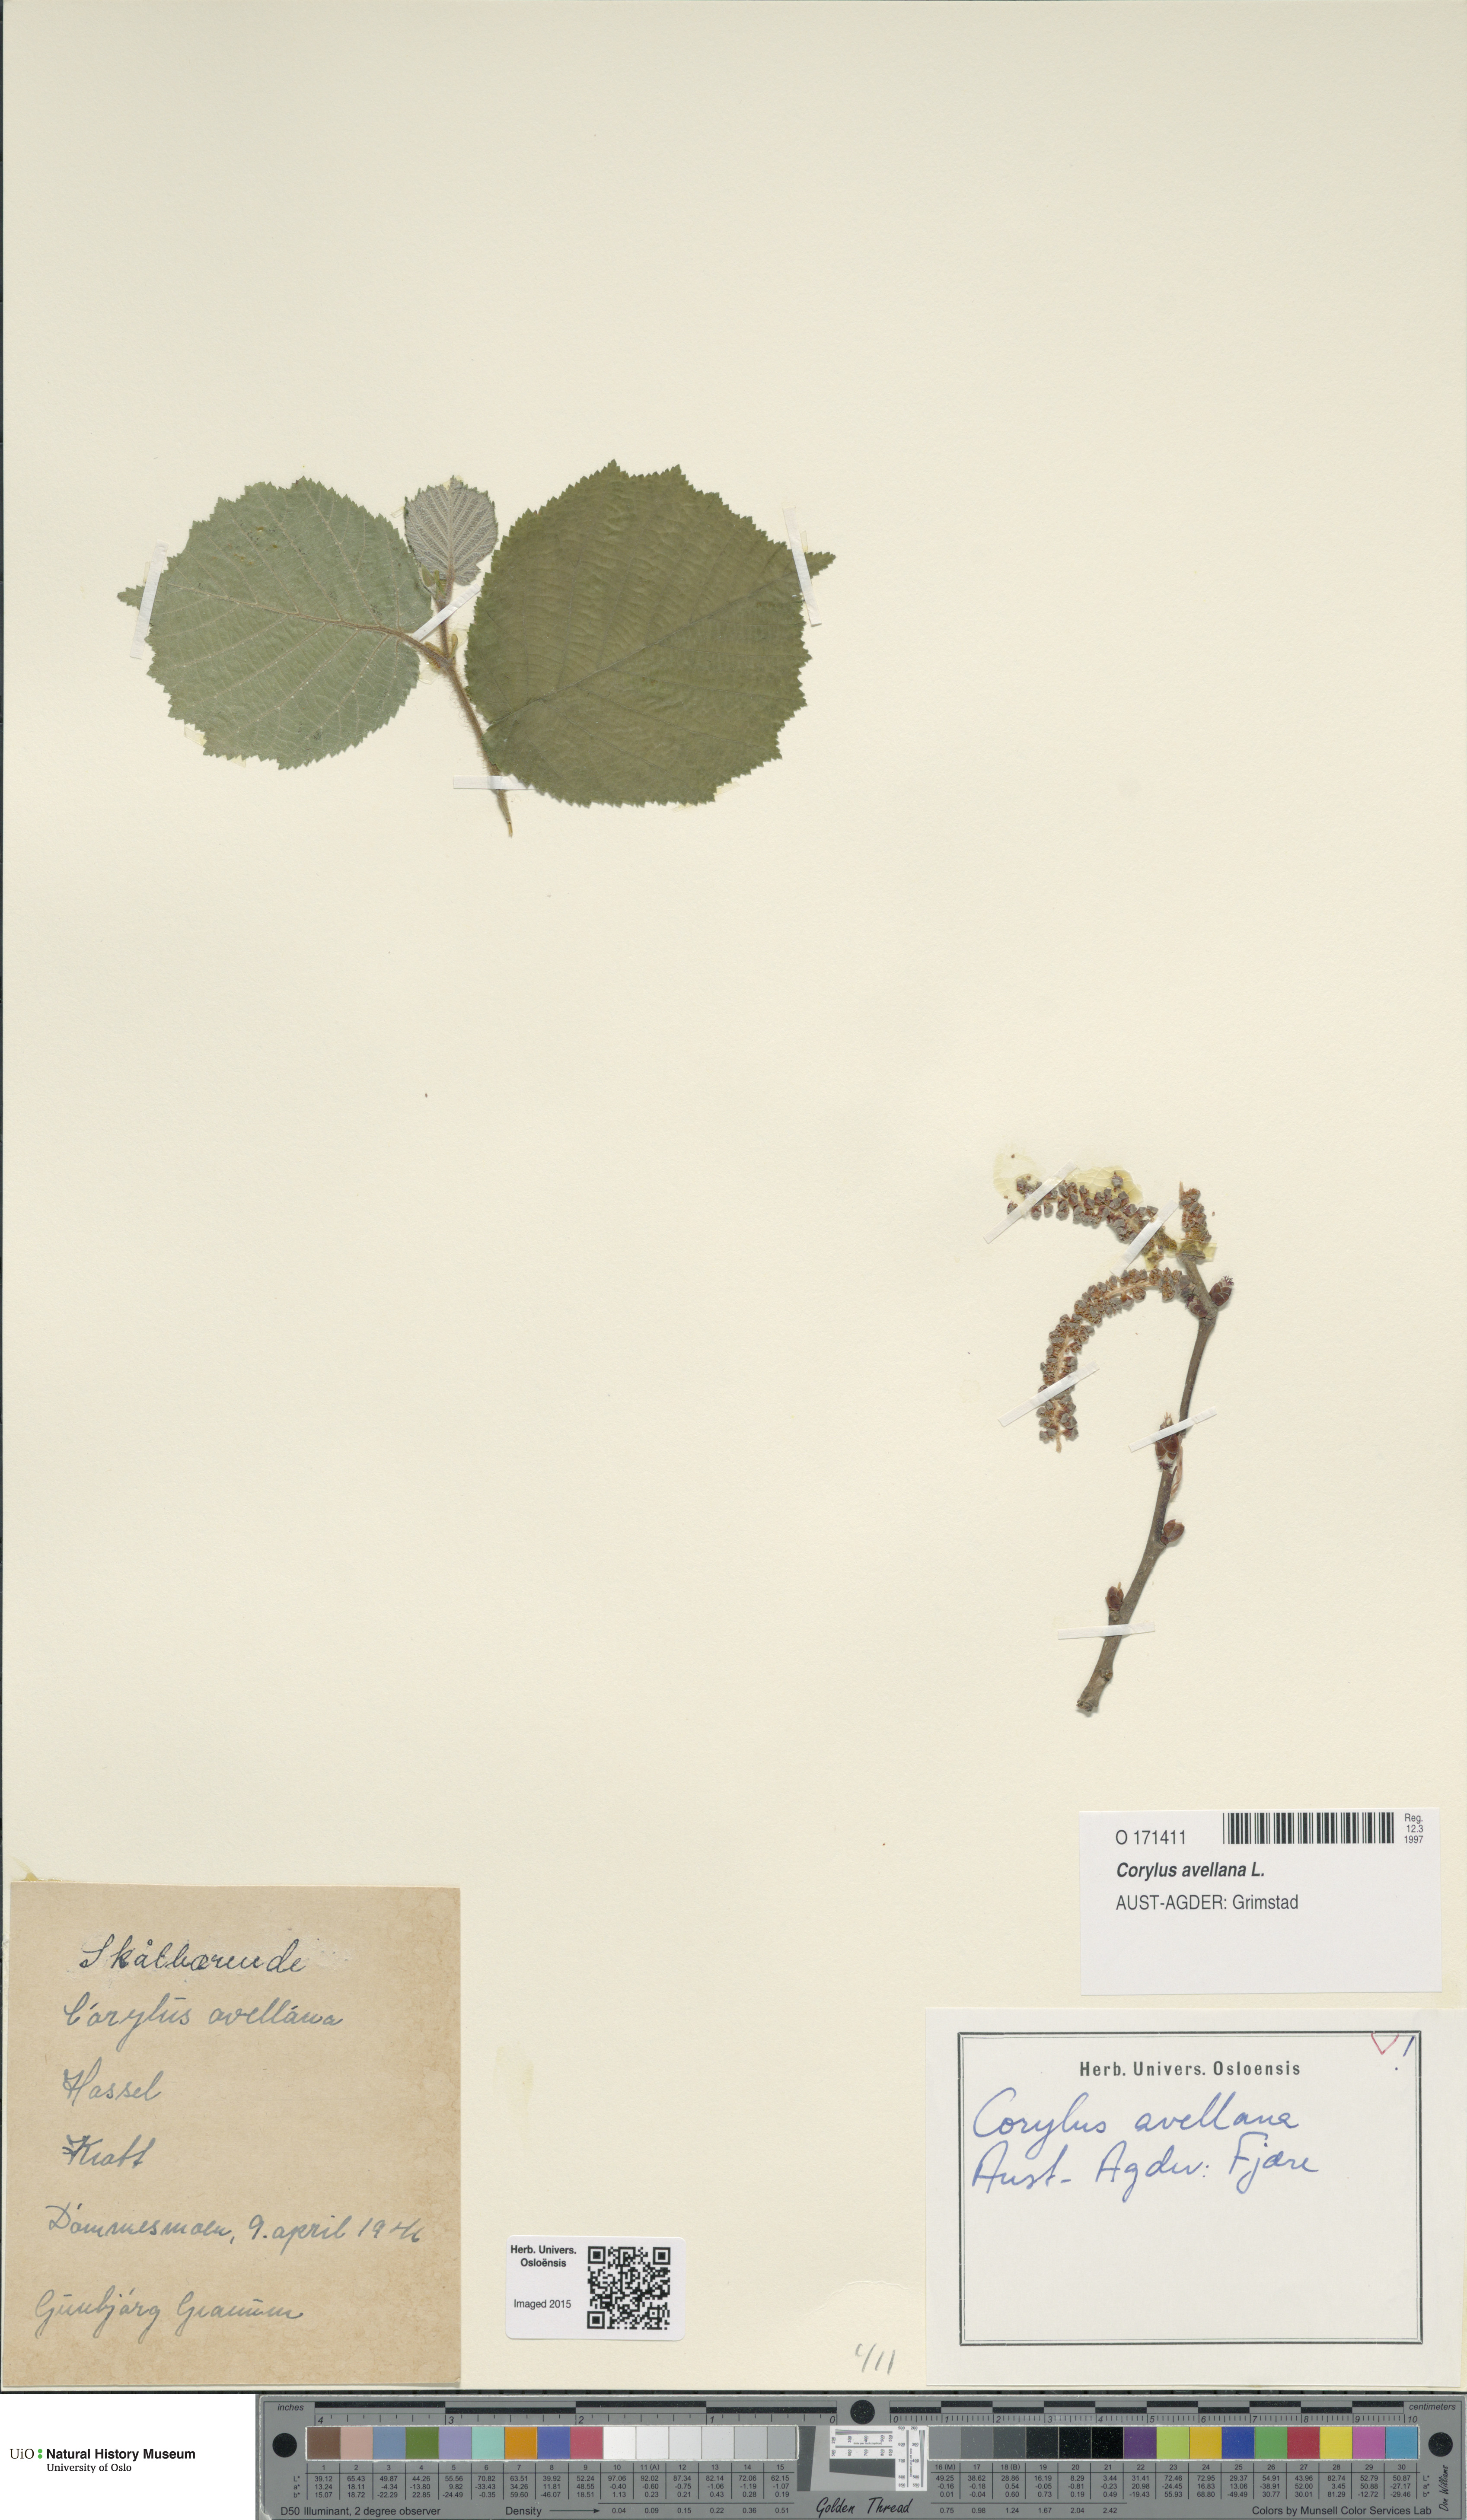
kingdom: Plantae
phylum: Tracheophyta
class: Magnoliopsida
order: Fagales
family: Betulaceae
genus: Corylus
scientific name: Corylus avellana
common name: European hazel
